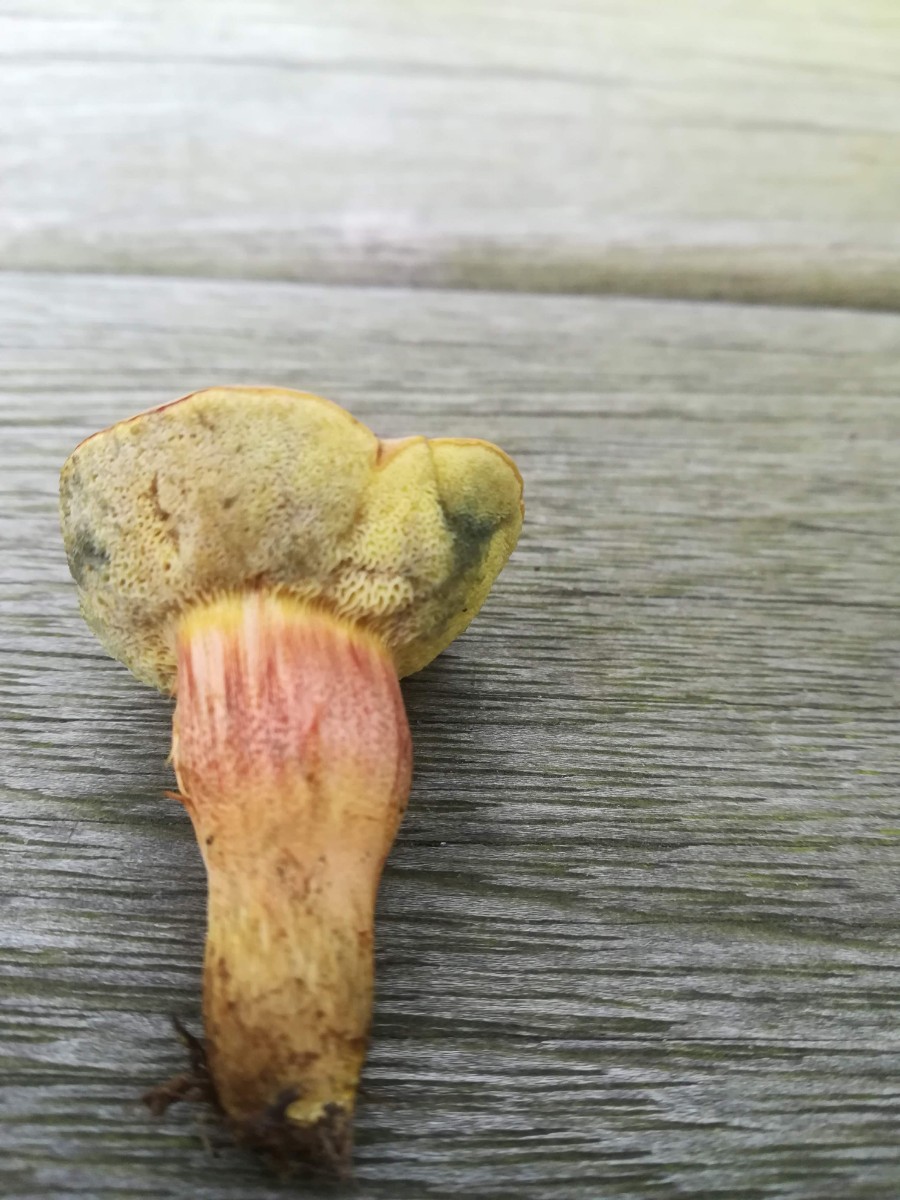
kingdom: Fungi
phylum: Basidiomycota
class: Agaricomycetes
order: Boletales
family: Boletaceae
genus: Hortiboletus
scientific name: Hortiboletus bubalinus
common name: aurora-rørhat
